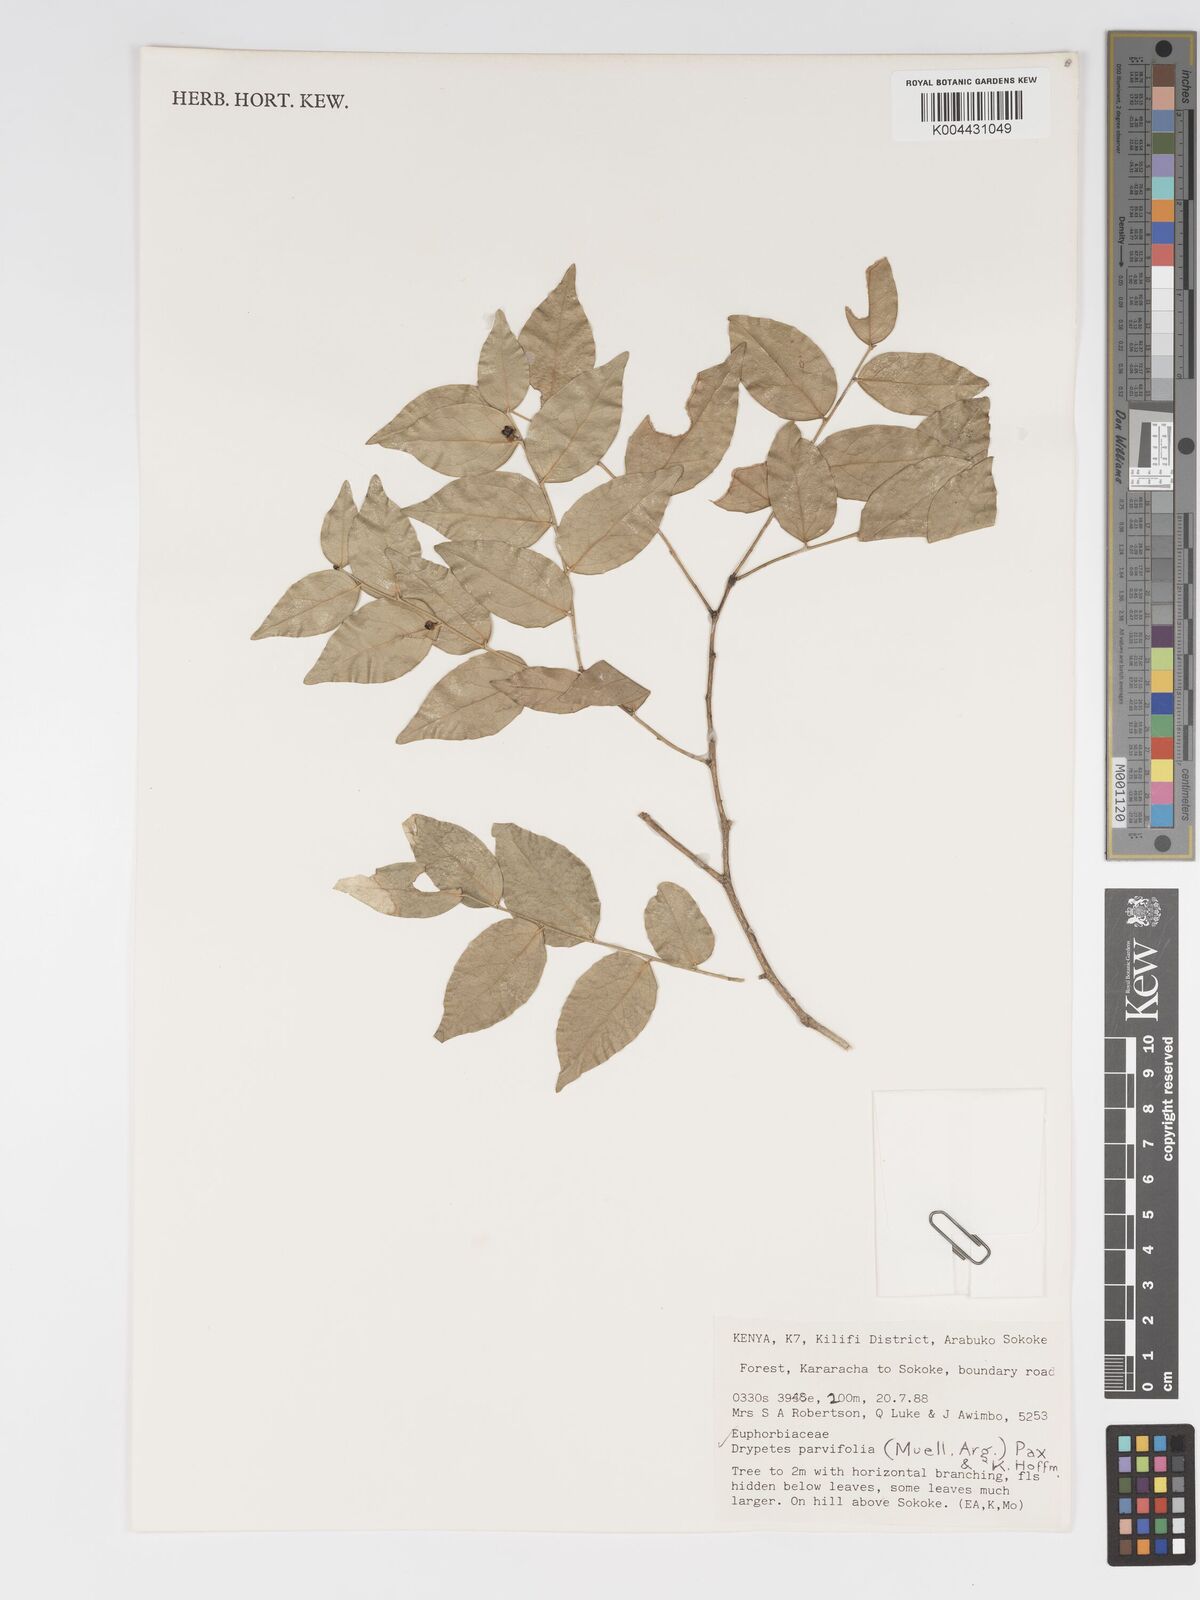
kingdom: Plantae
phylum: Tracheophyta
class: Magnoliopsida
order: Malpighiales
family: Putranjivaceae
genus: Drypetes
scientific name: Drypetes parvifolia
